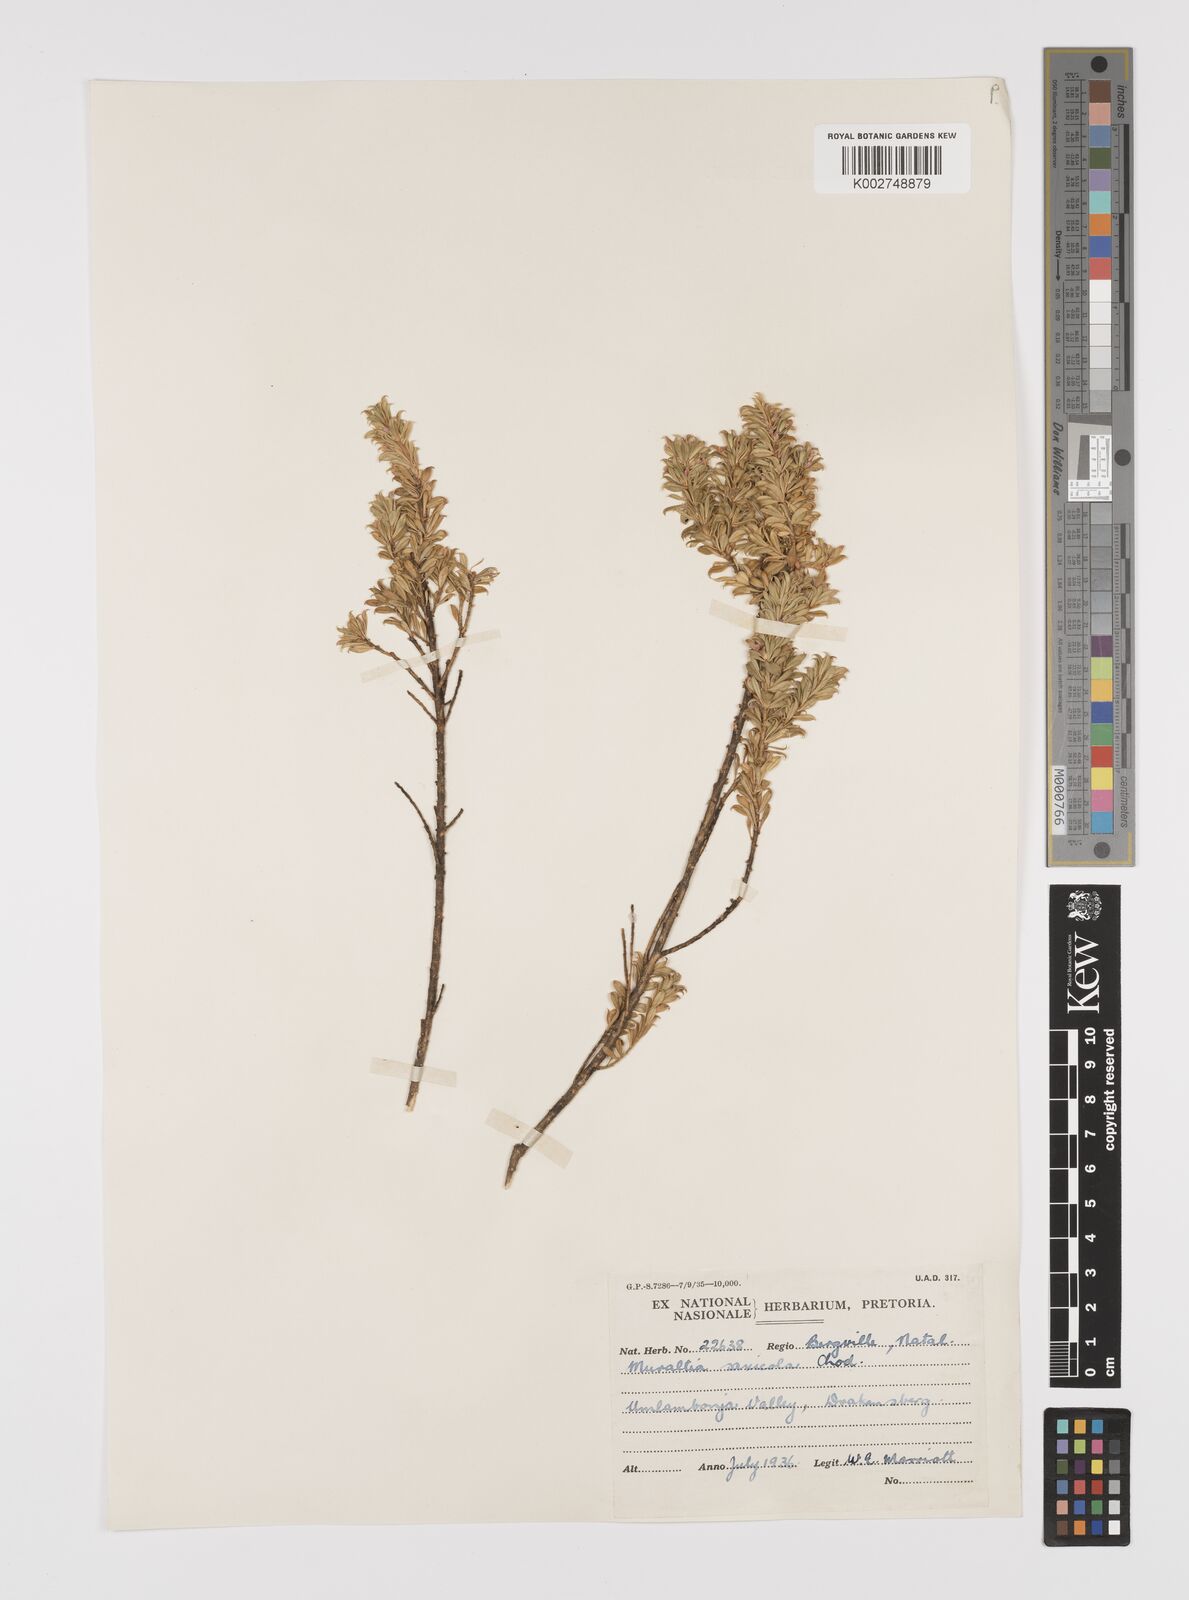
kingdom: Plantae
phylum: Tracheophyta
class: Magnoliopsida
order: Fabales
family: Polygalaceae
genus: Muraltia
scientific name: Muraltia saxicola
